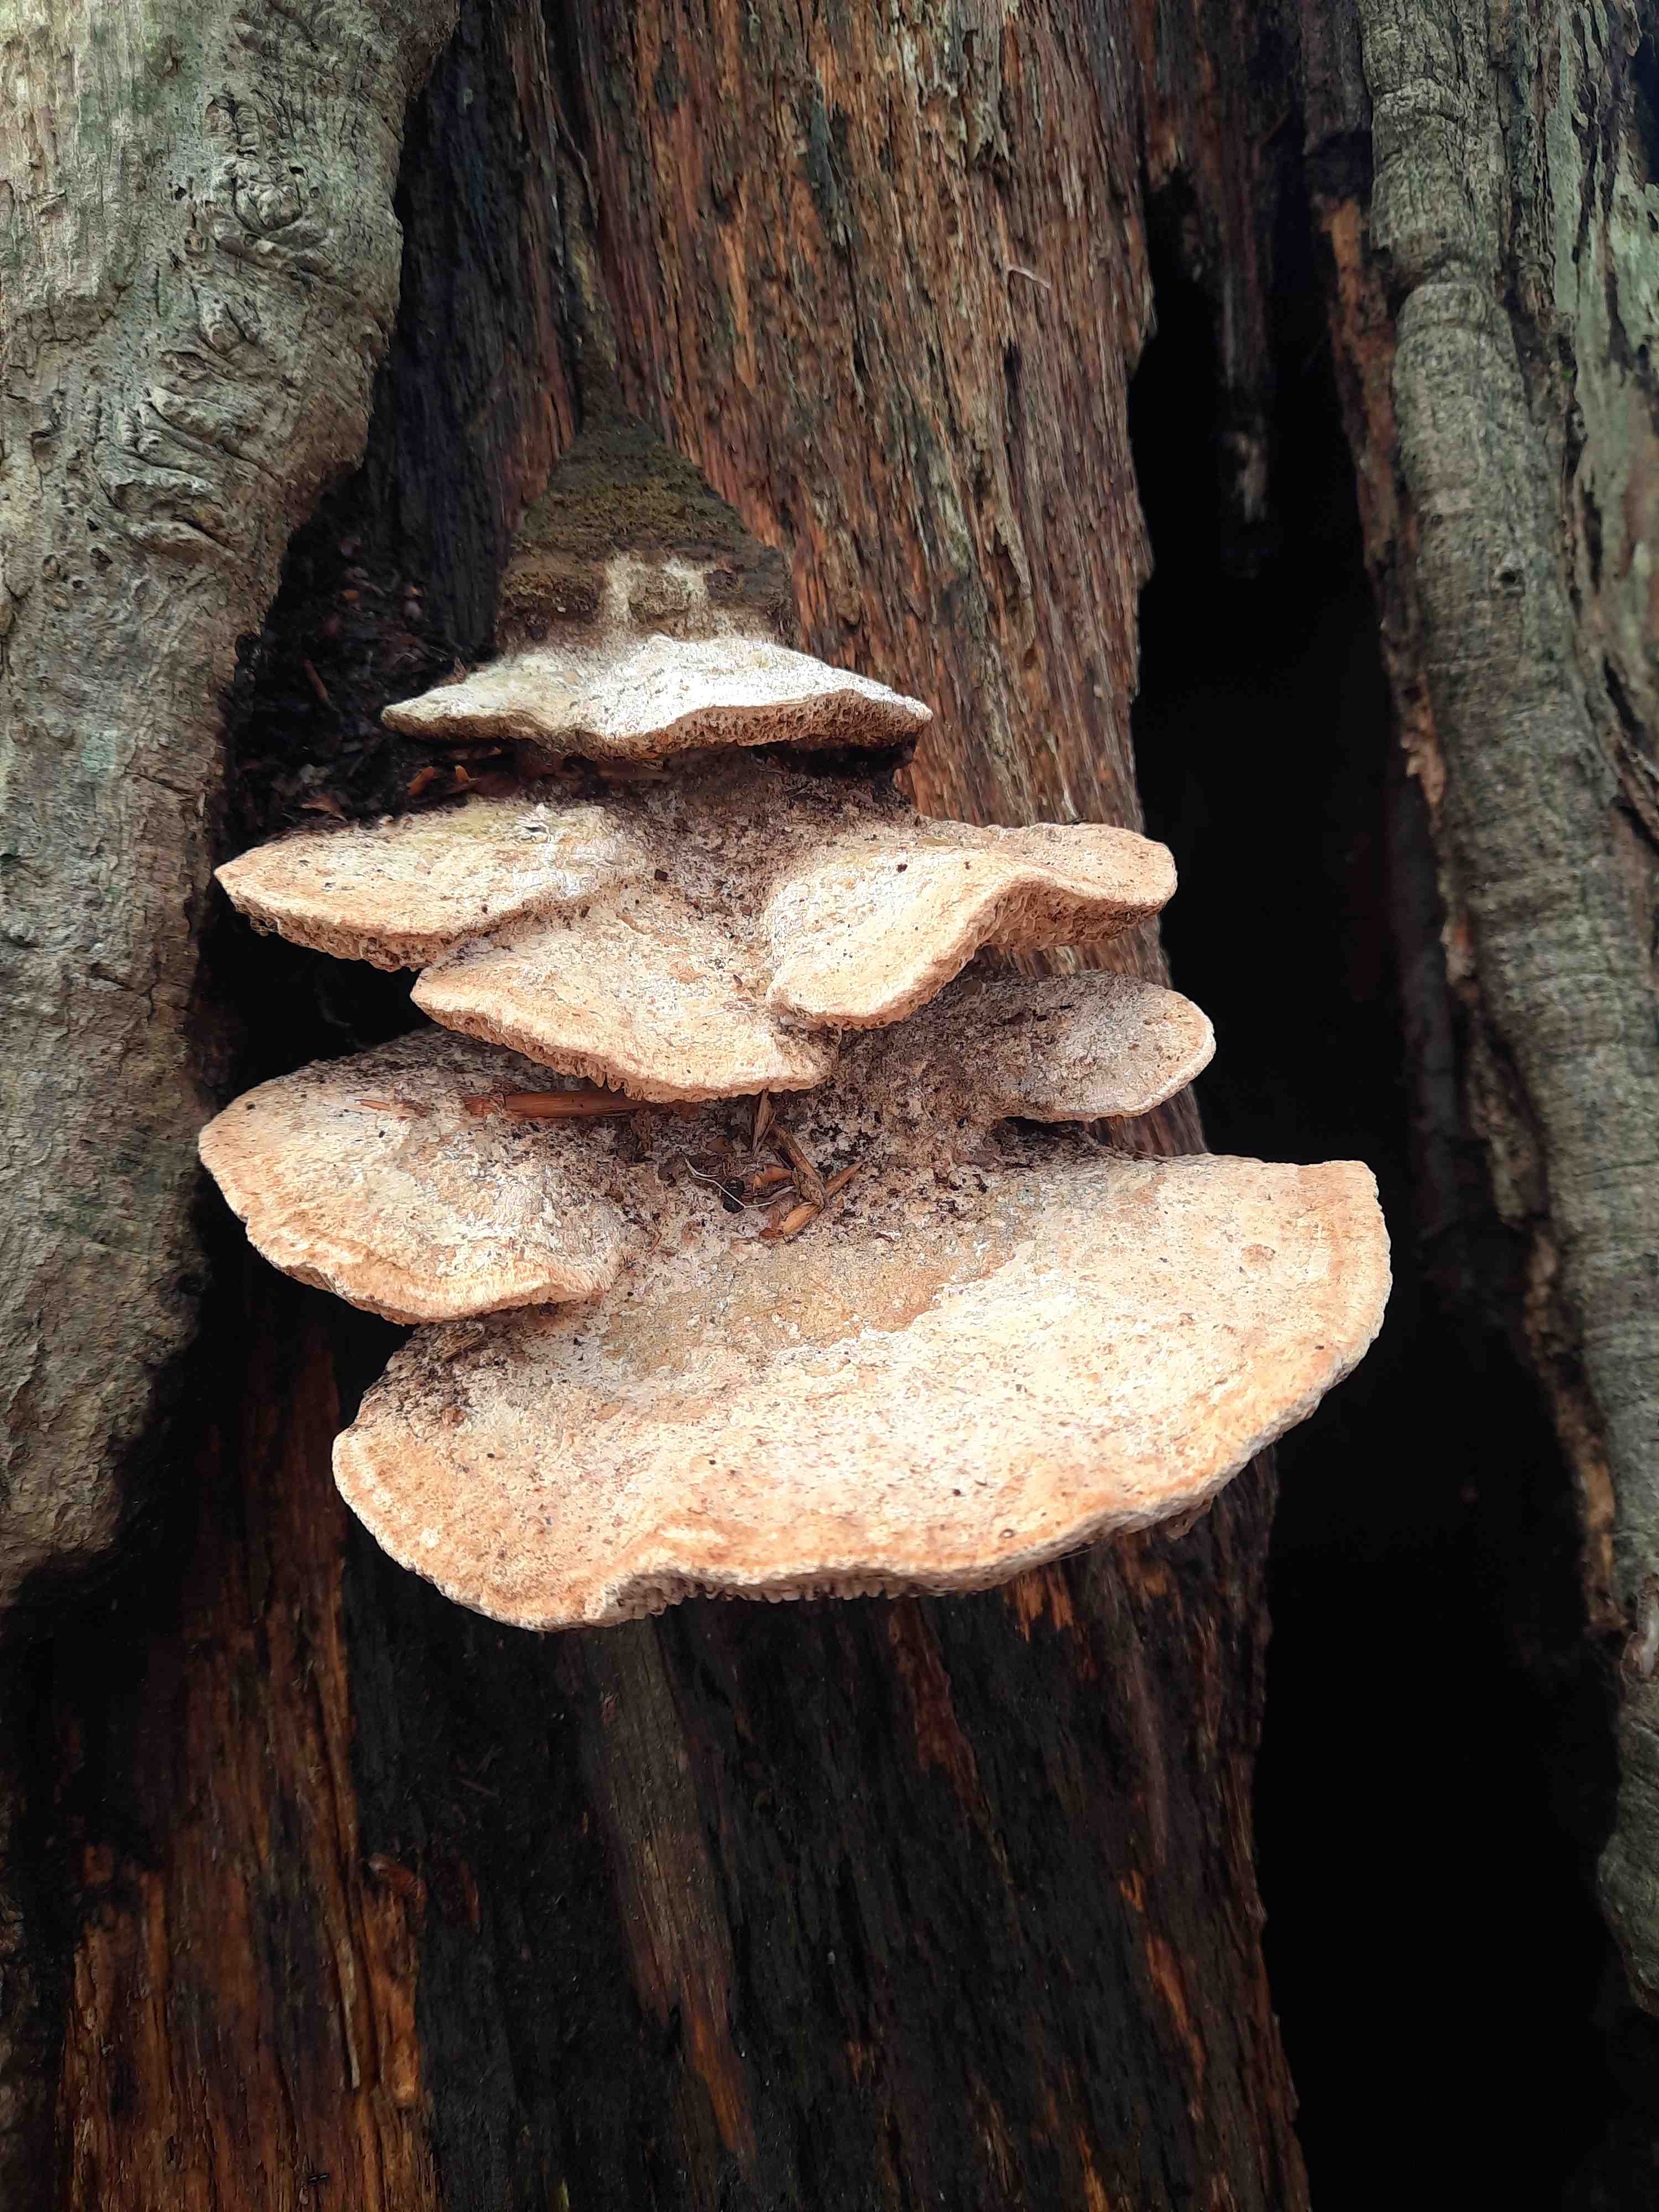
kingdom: Fungi
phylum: Basidiomycota
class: Agaricomycetes
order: Polyporales
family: Fomitopsidaceae
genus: Daedalea
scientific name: Daedalea quercina
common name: ege-labyrintsvamp
